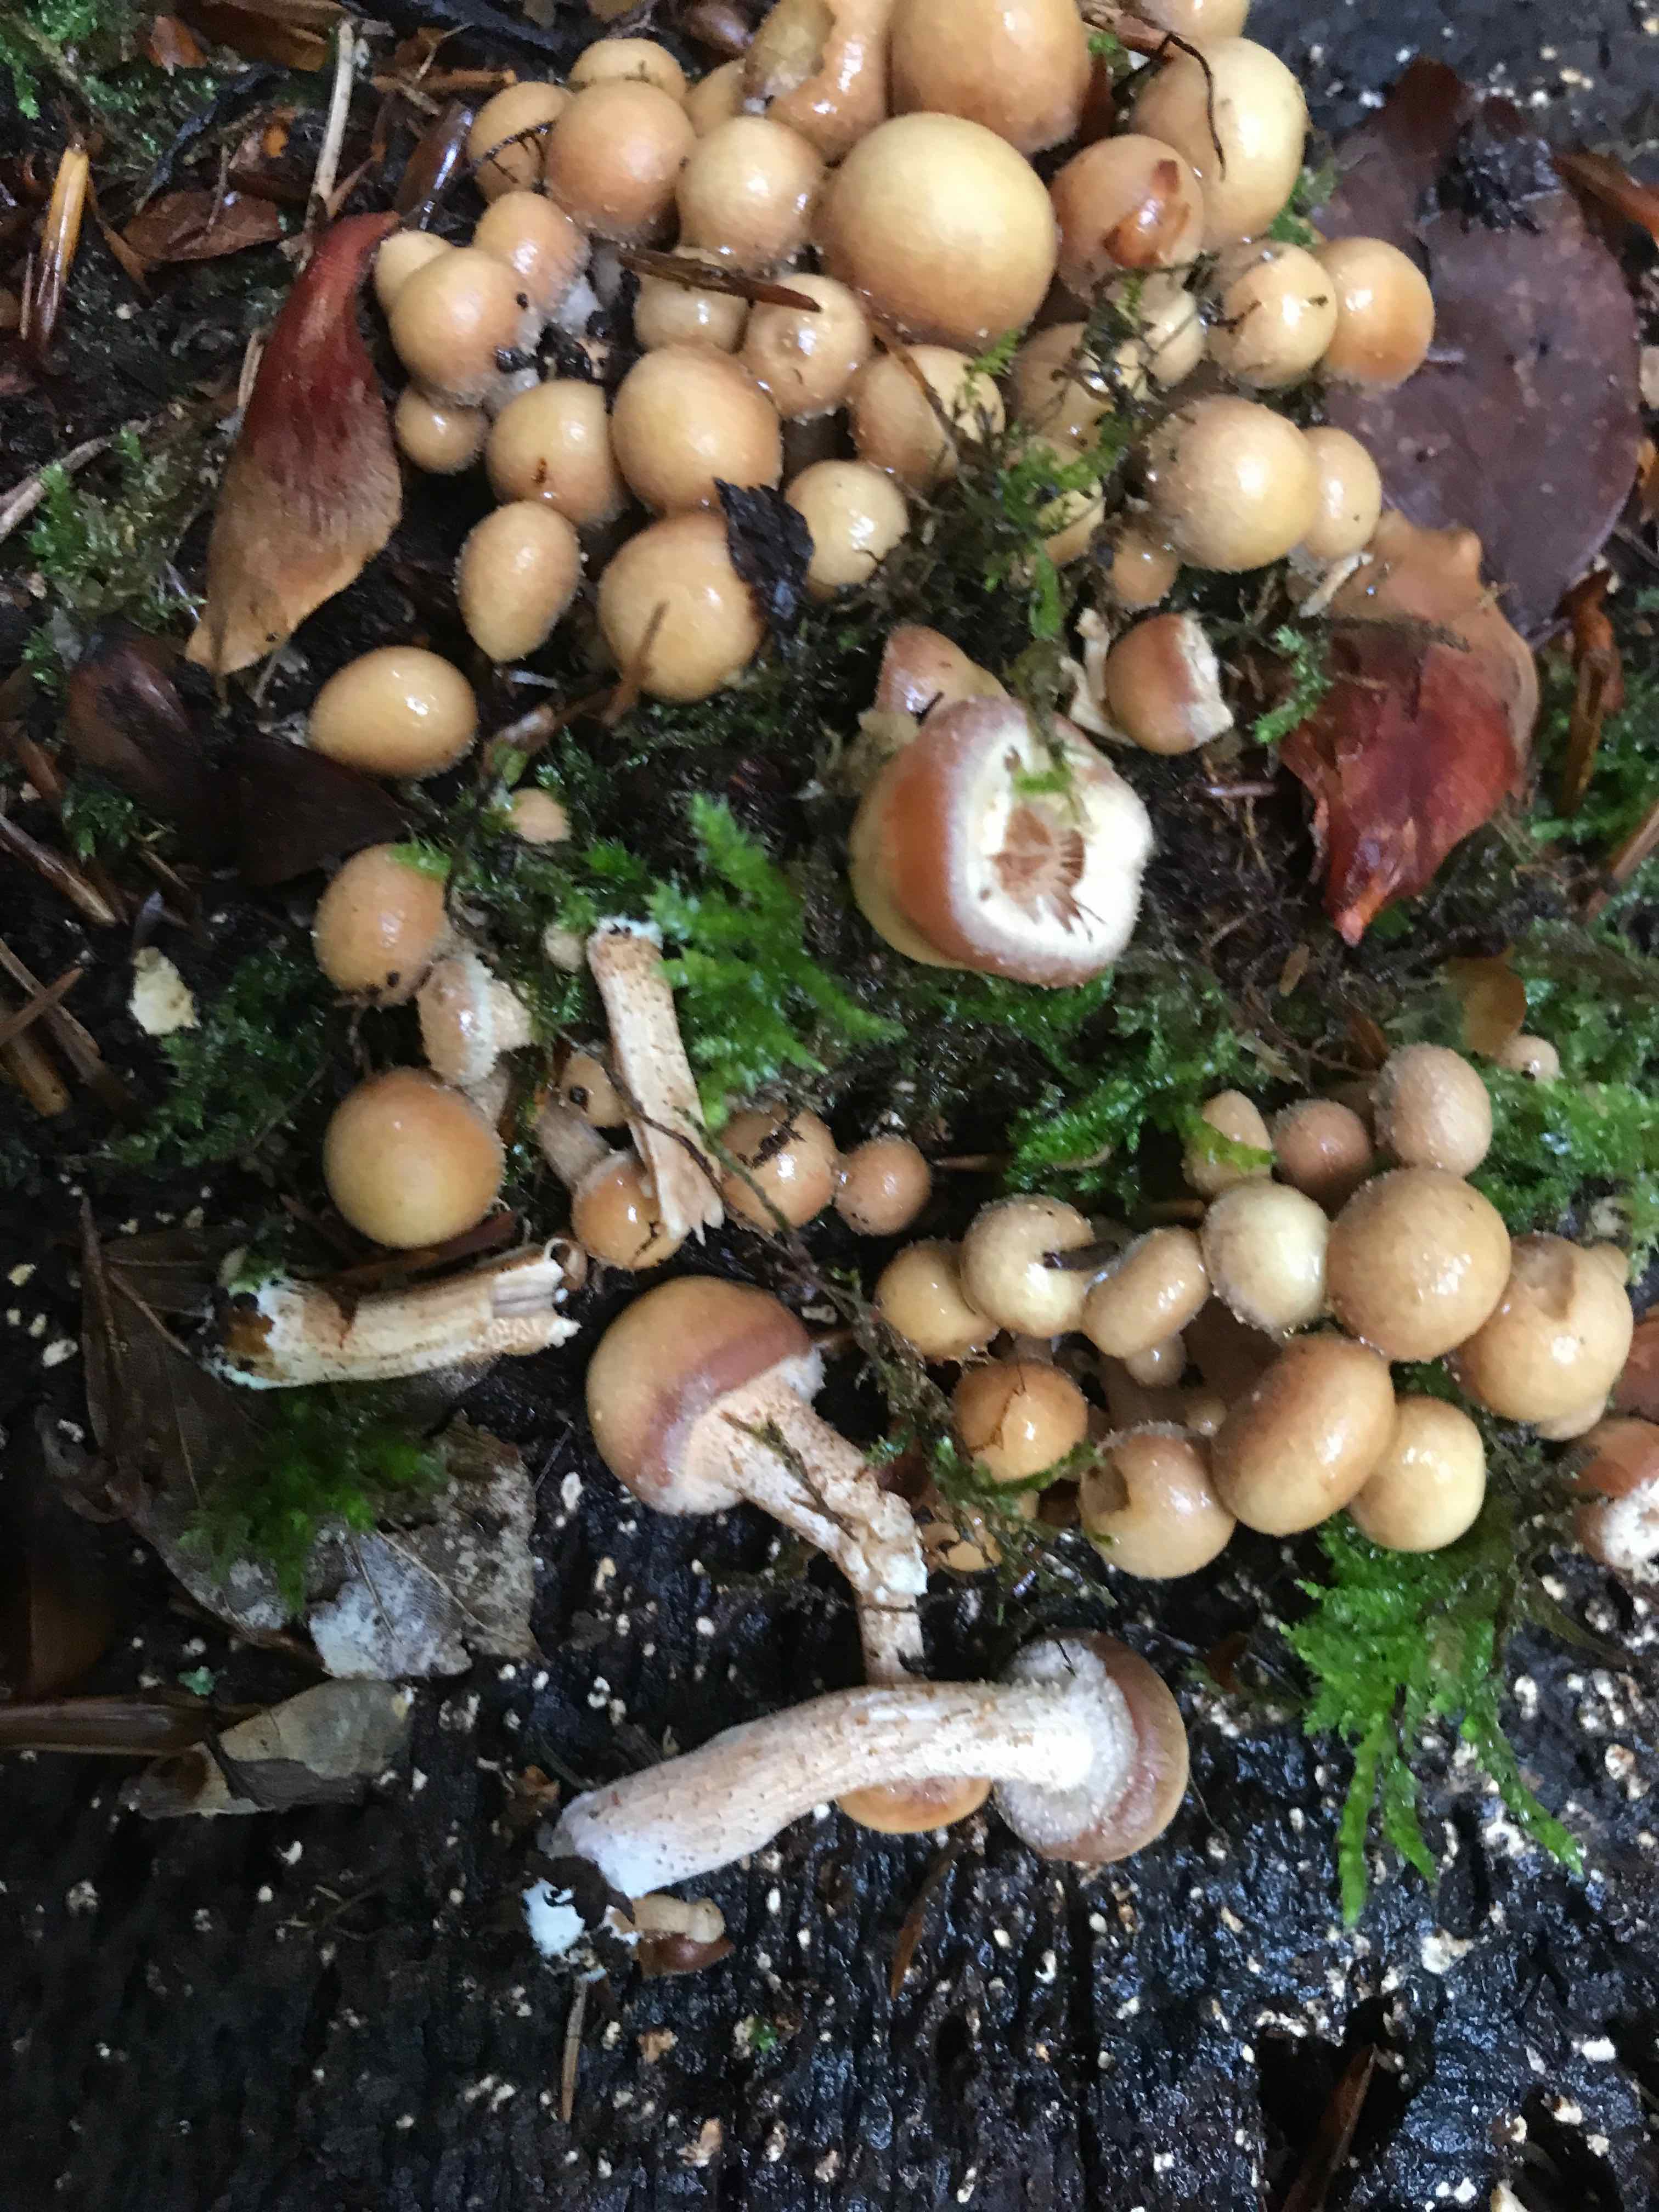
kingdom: Fungi
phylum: Basidiomycota
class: Agaricomycetes
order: Agaricales
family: Strophariaceae
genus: Kuehneromyces
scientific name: Kuehneromyces mutabilis
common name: foranderlig skælhat
